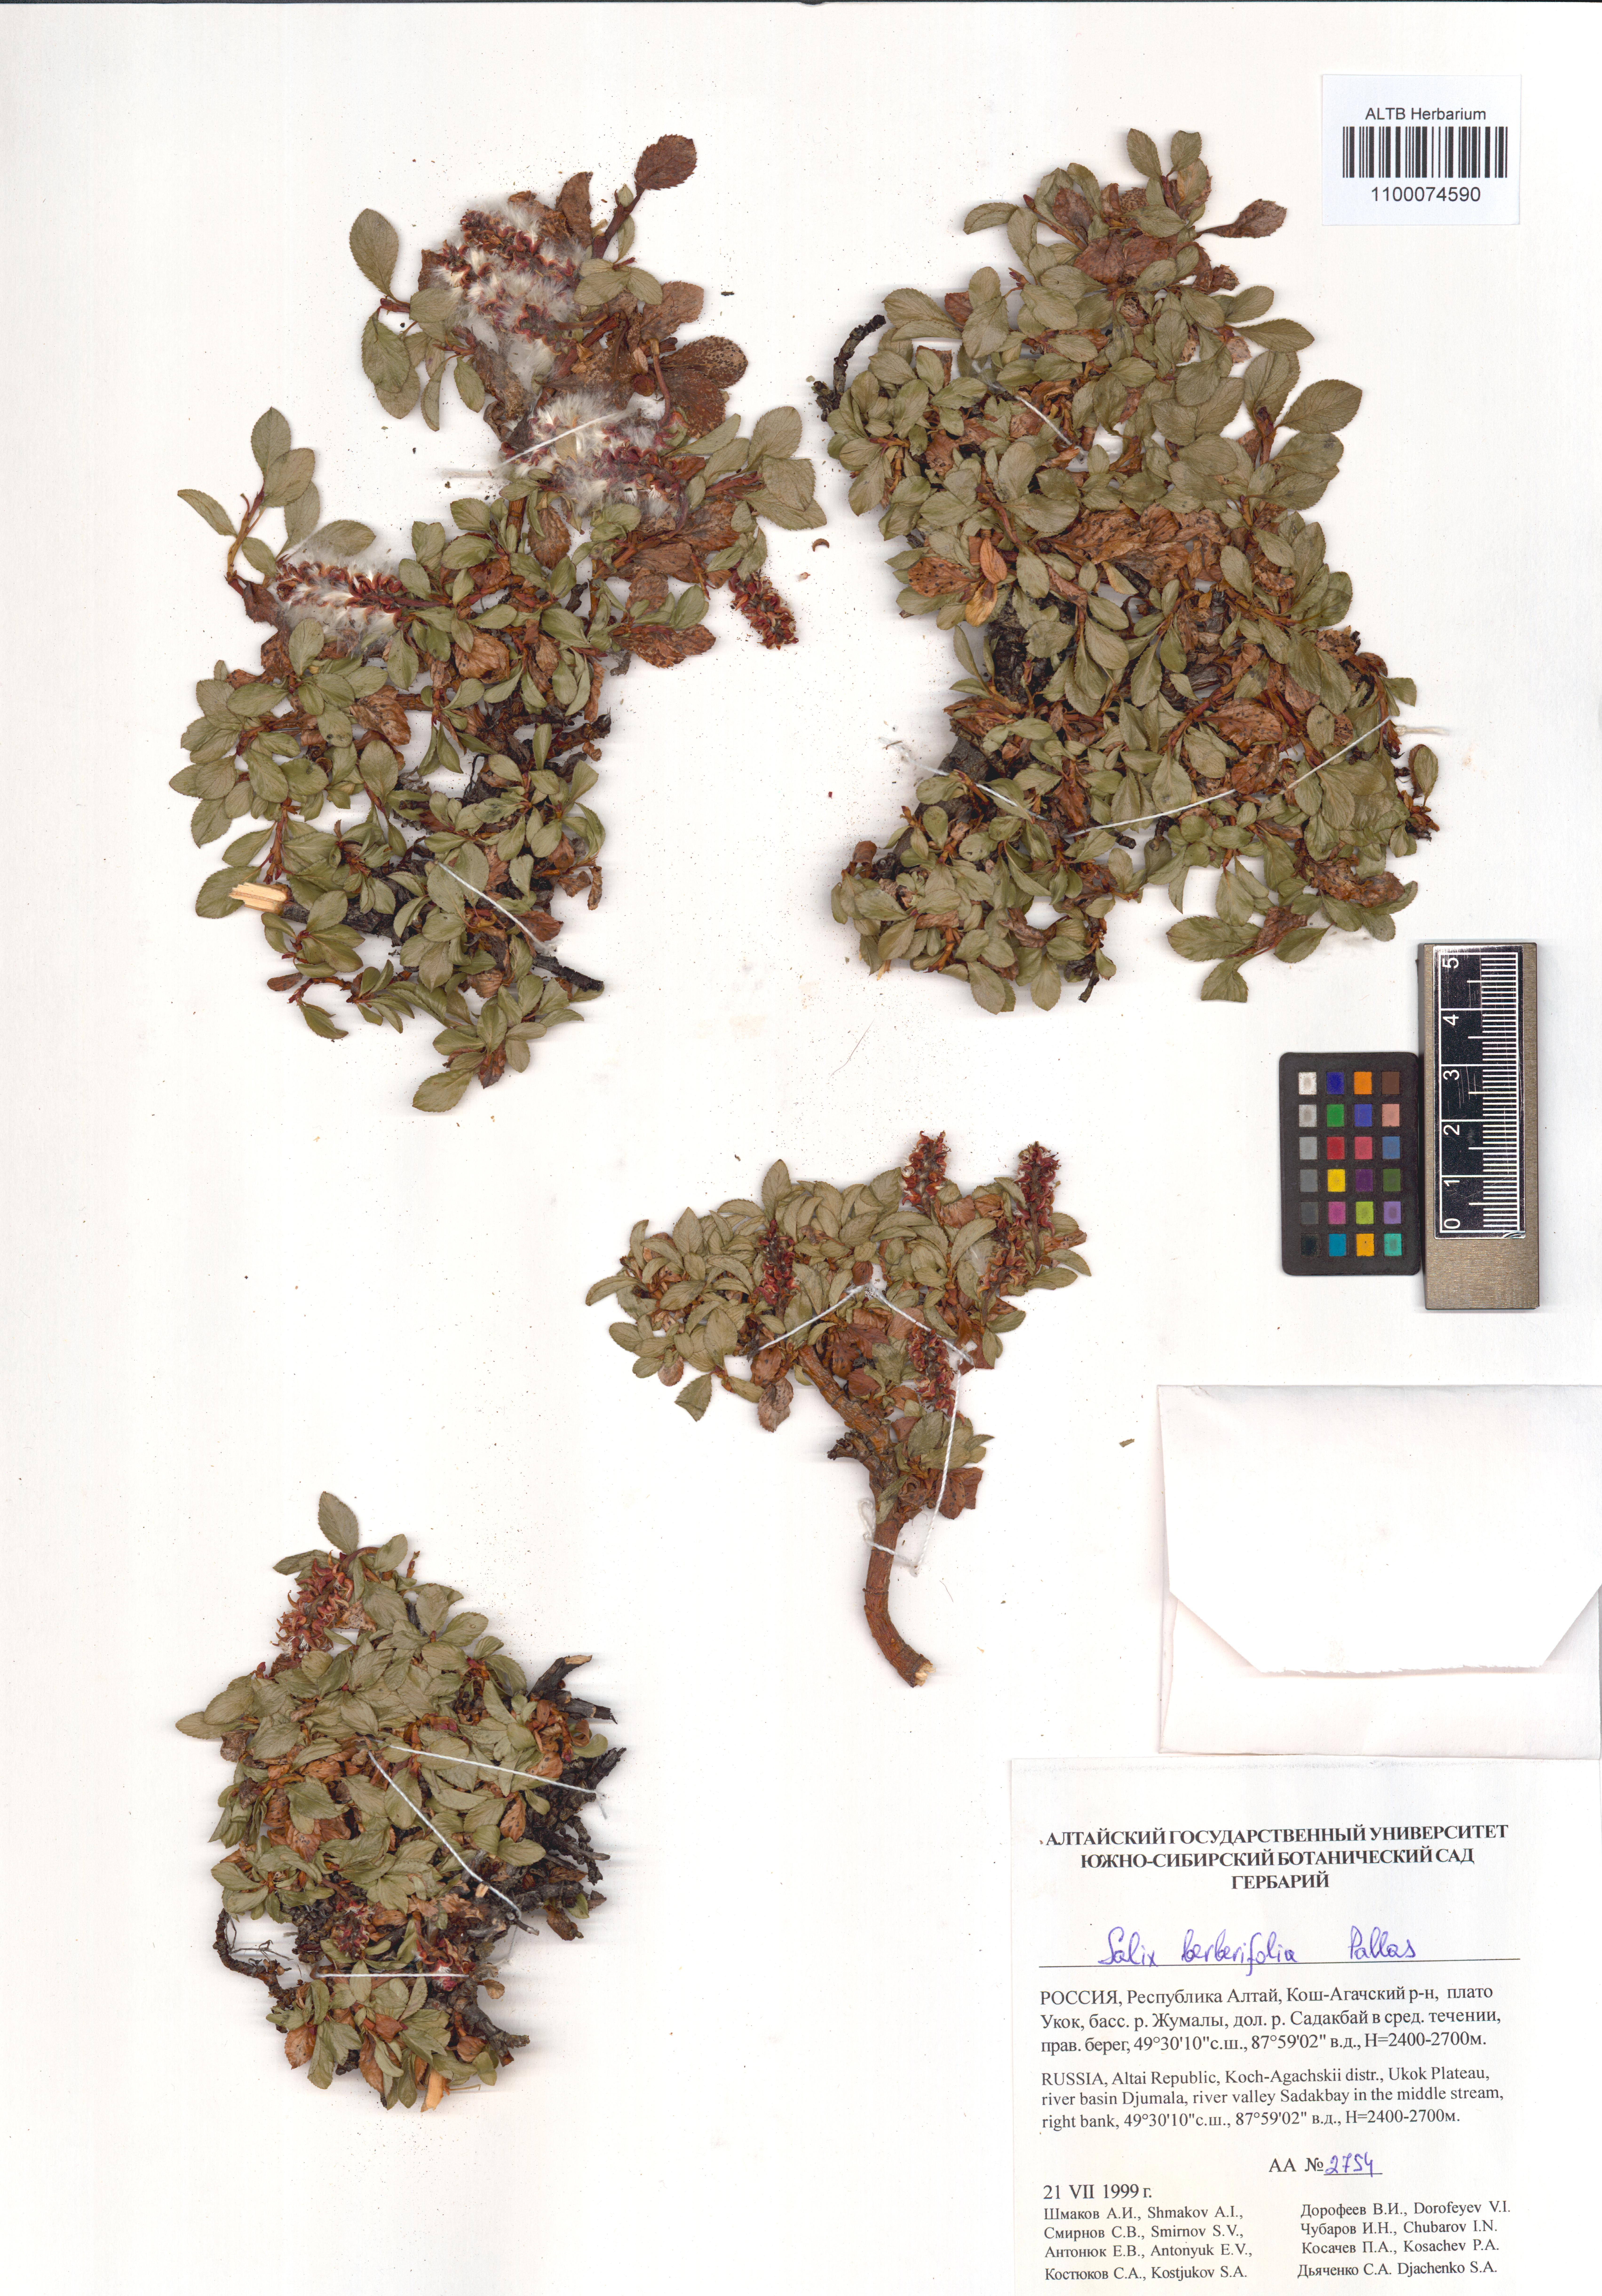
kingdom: Plantae
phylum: Tracheophyta
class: Magnoliopsida
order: Malpighiales
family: Salicaceae
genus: Salix
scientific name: Salix berberifolia
